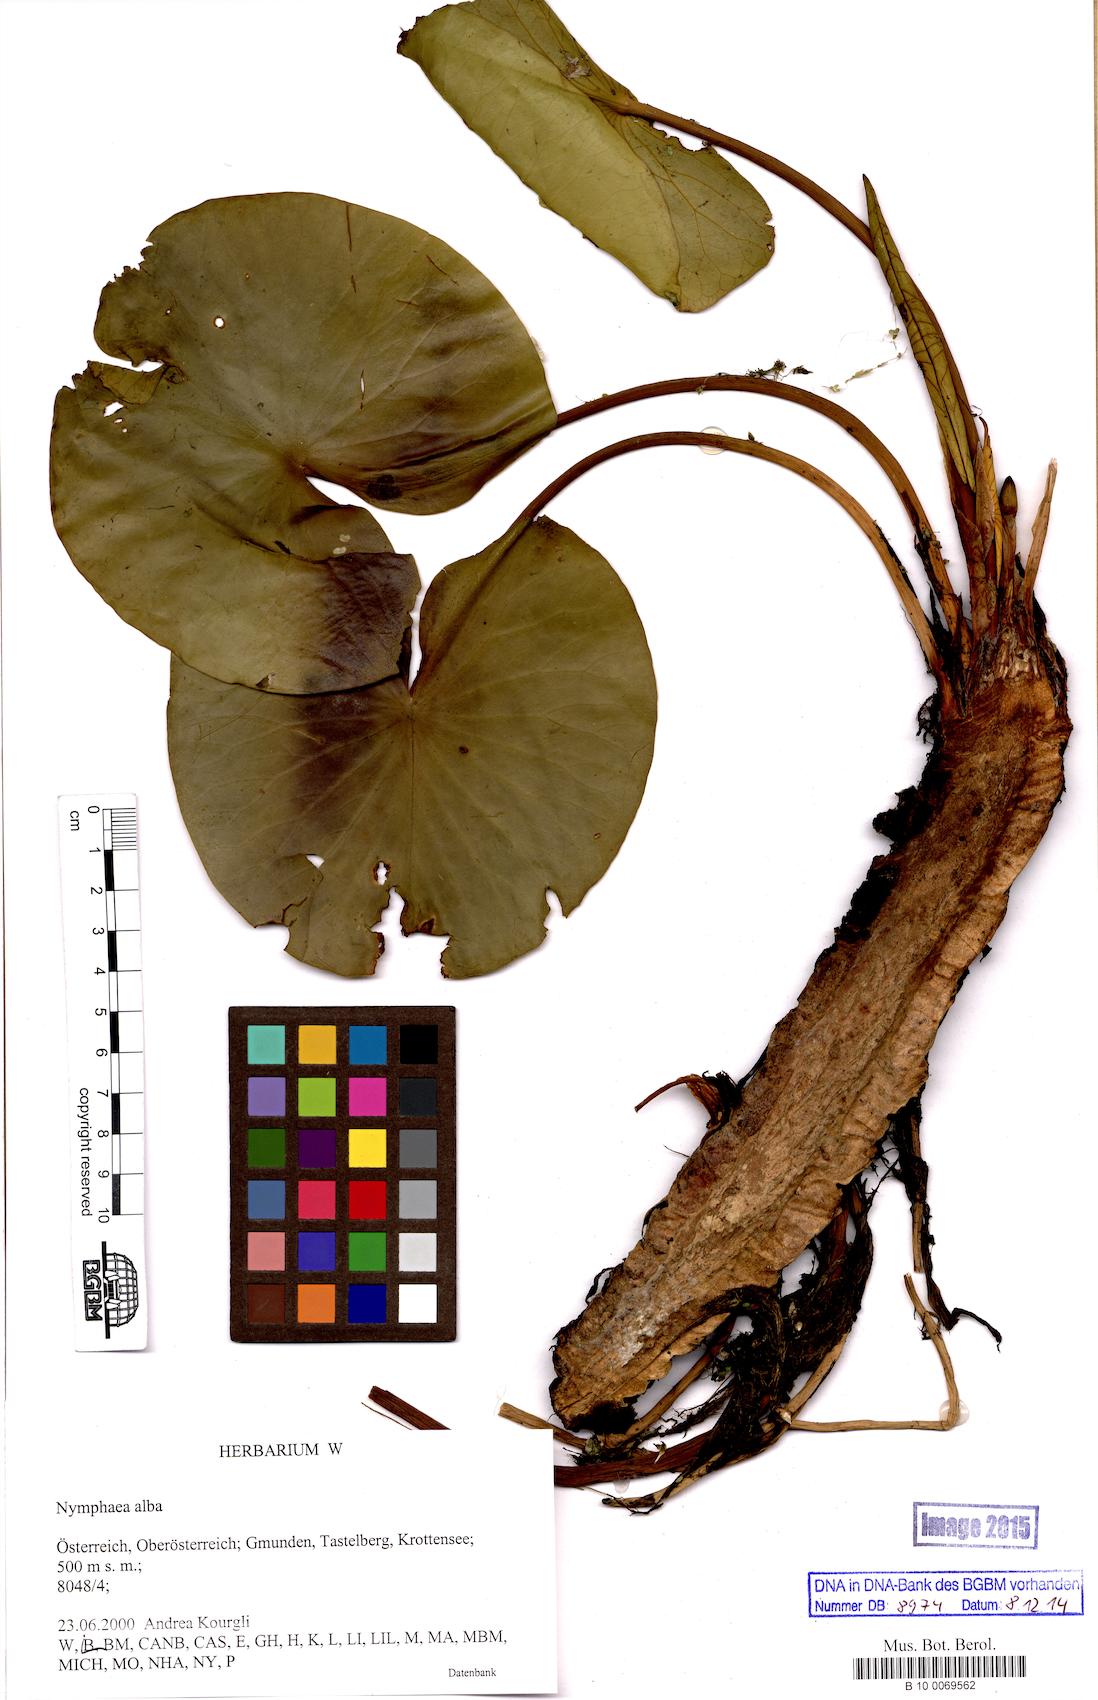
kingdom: Plantae
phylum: Tracheophyta
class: Magnoliopsida
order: Nymphaeales
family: Nymphaeaceae
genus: Nymphaea
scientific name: Nymphaea alba
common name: White water-lily
